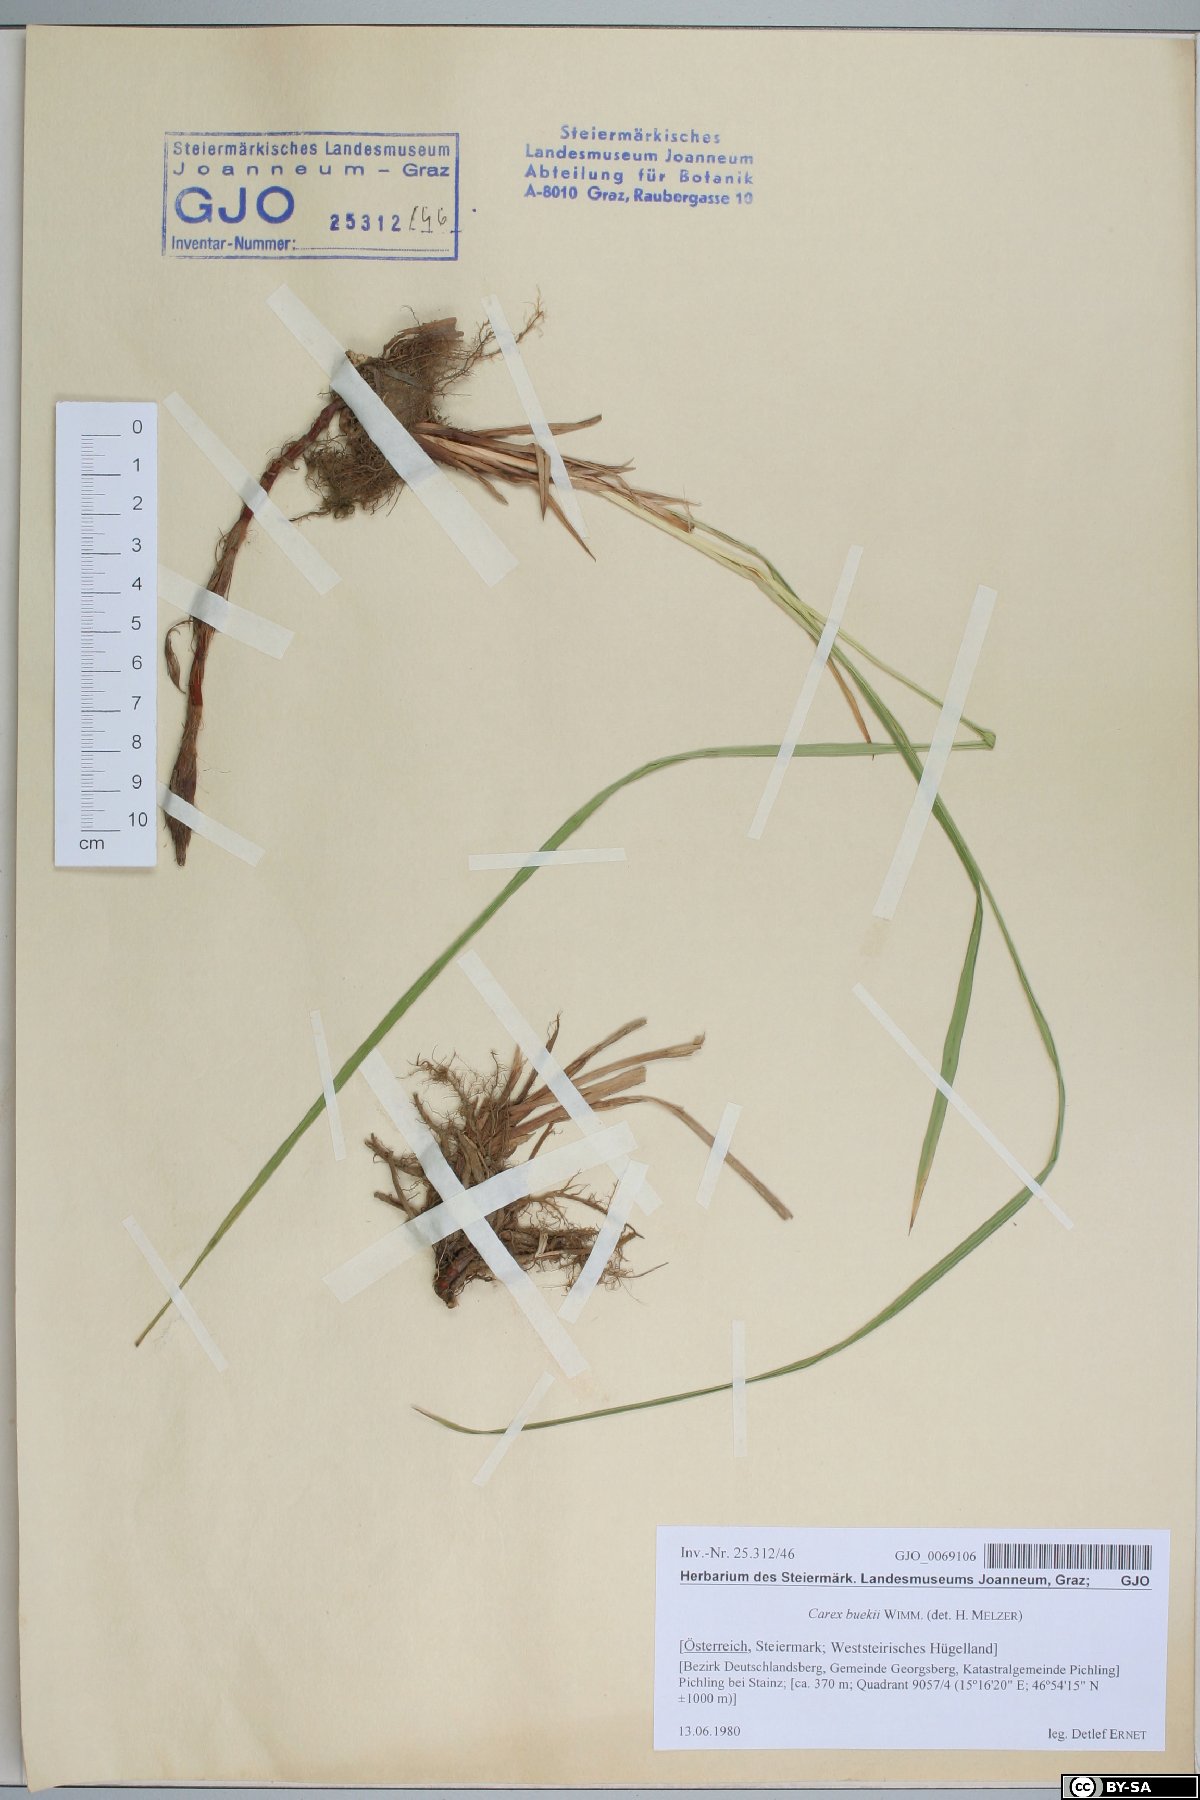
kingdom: Plantae
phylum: Tracheophyta
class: Liliopsida
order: Poales
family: Cyperaceae
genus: Carex
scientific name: Carex buekii
